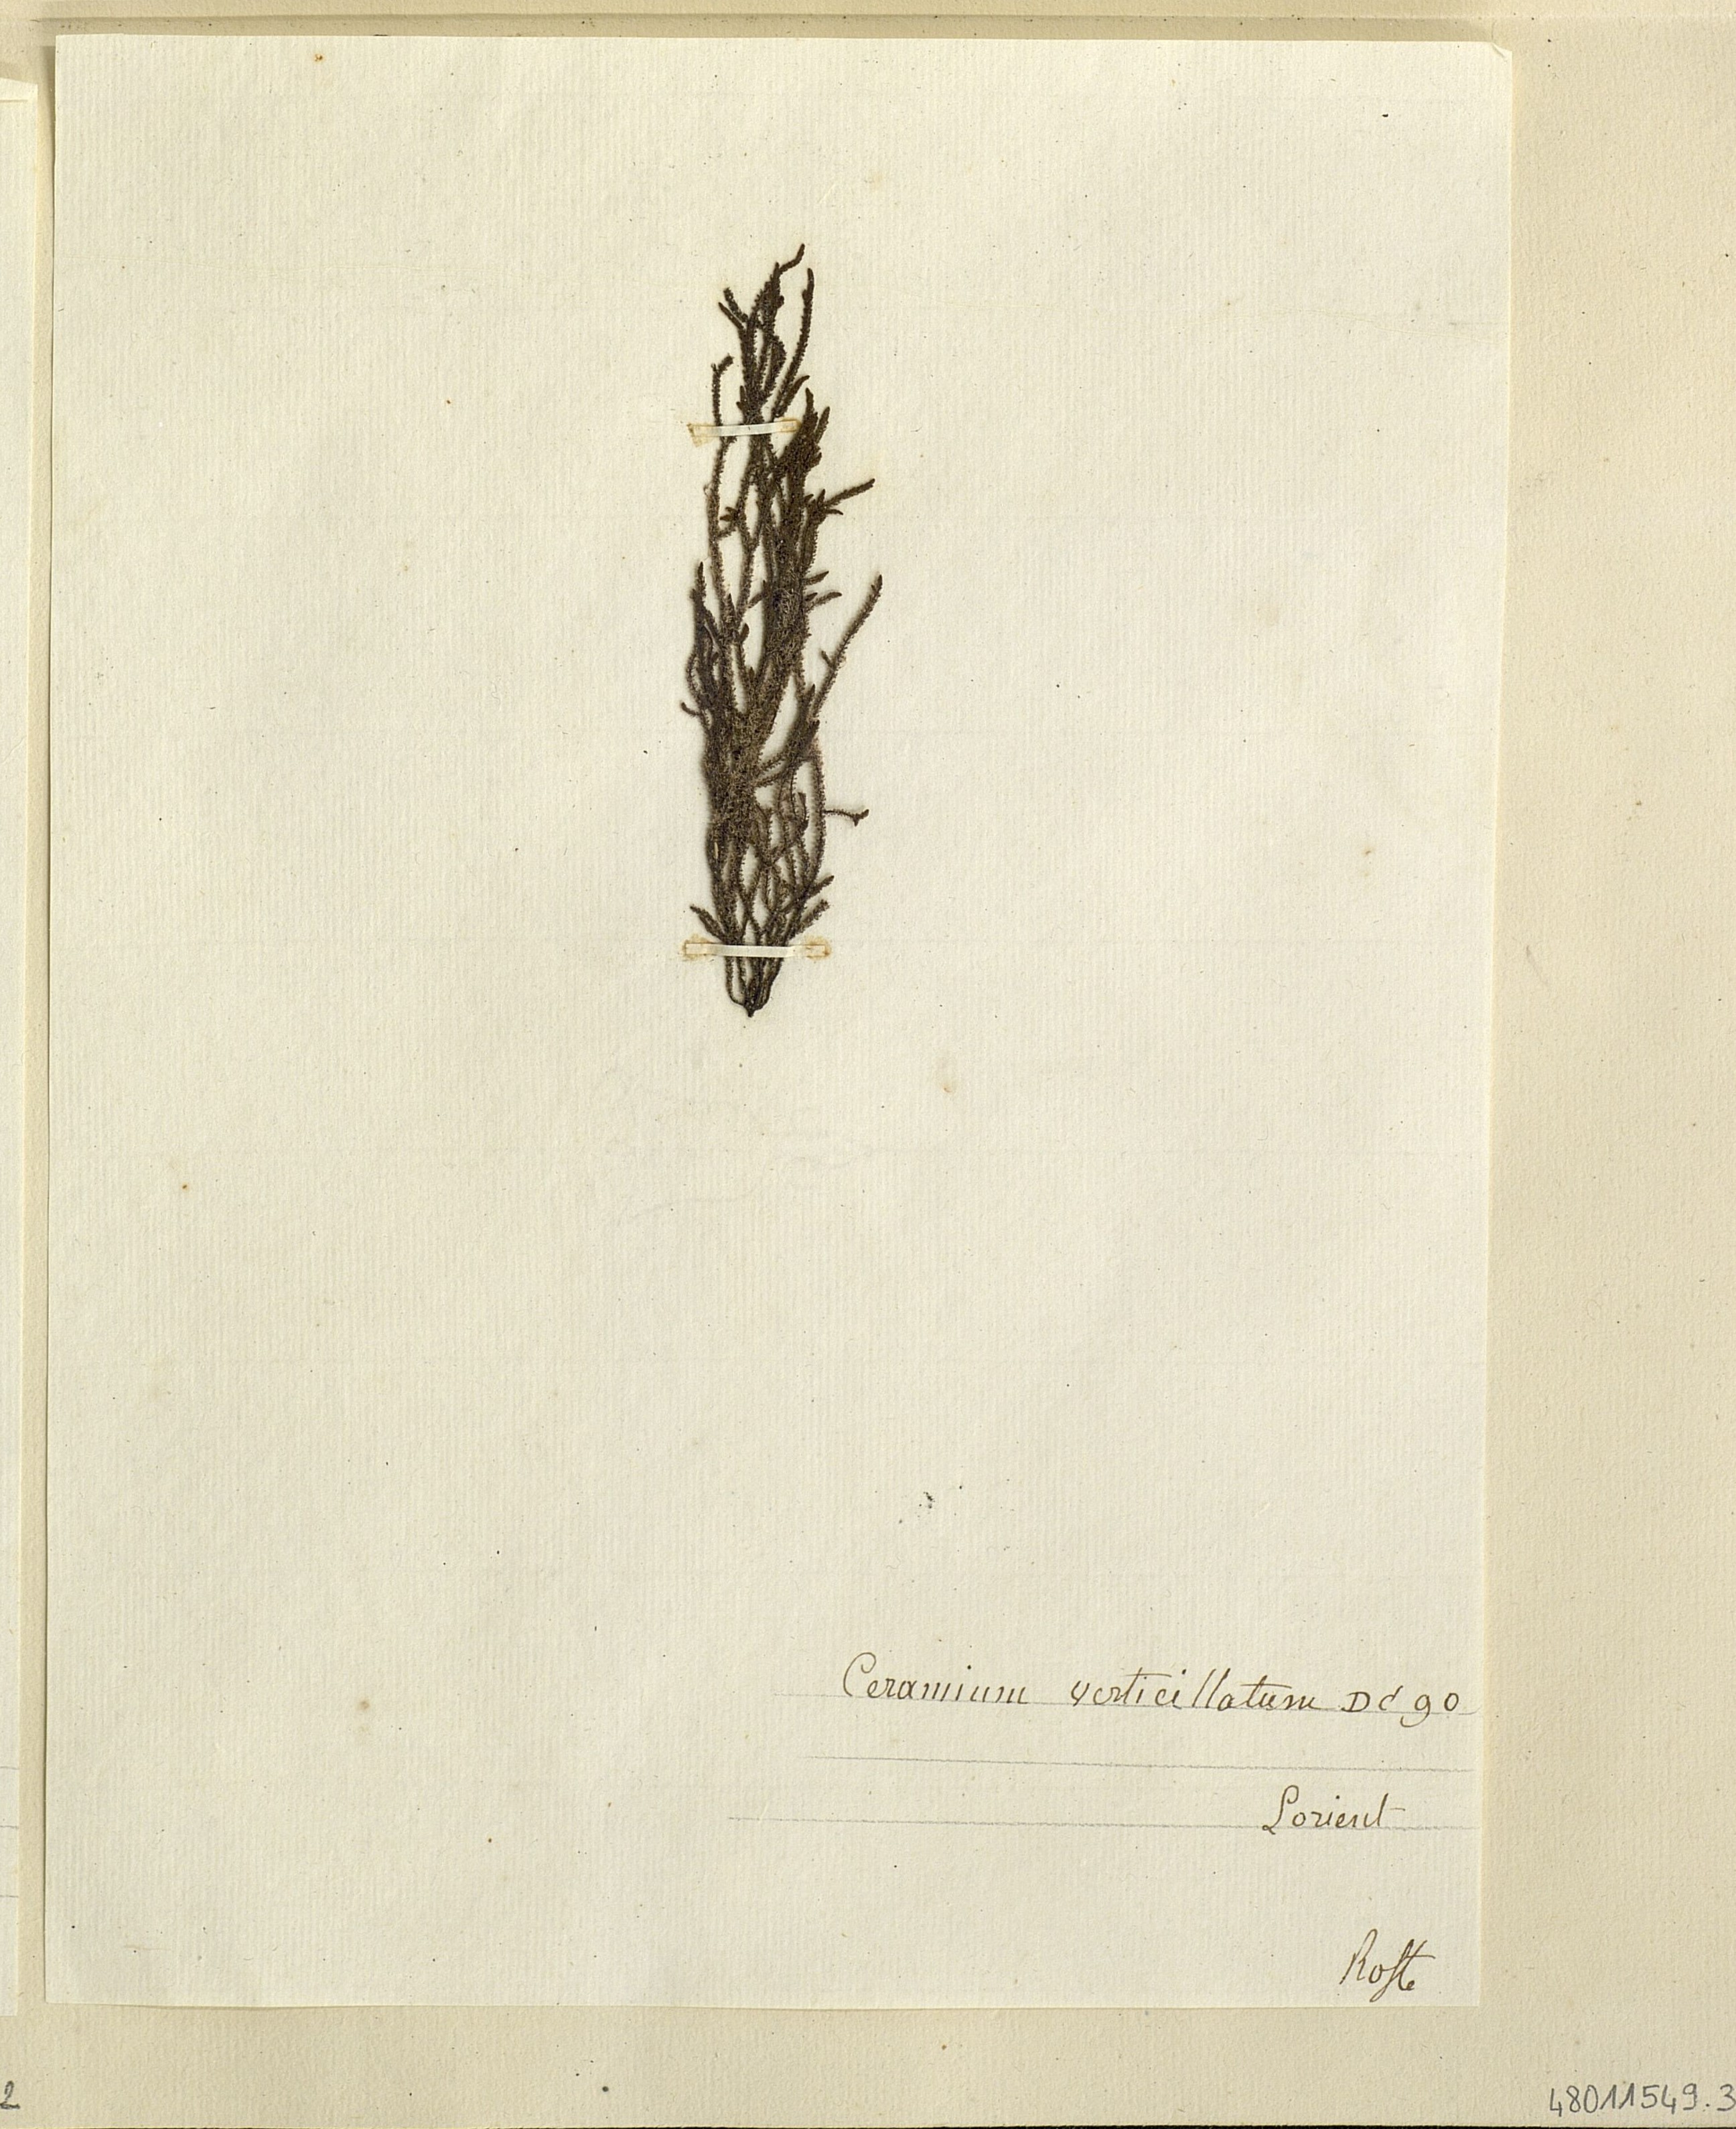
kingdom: Plantae
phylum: Rhodophyta
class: Florideophyceae
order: Ceramiales
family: Ceramiaceae
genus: Ceramium
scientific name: Ceramium
